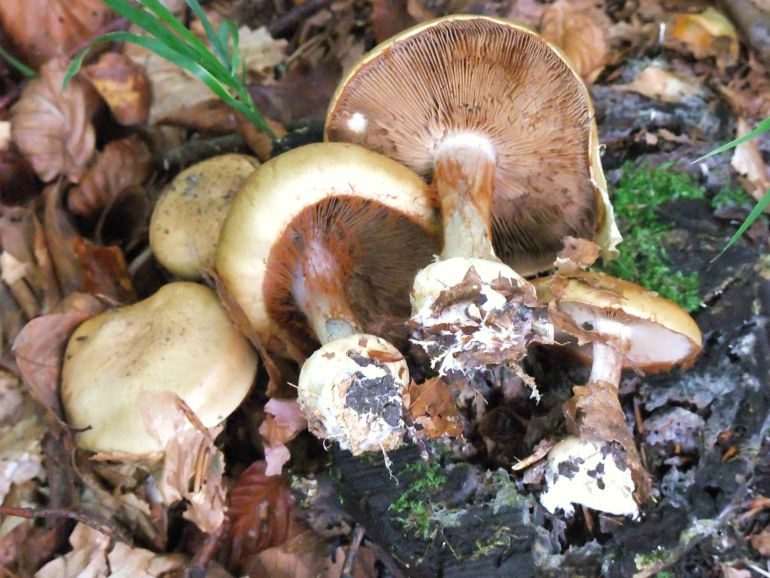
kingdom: Fungi
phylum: Basidiomycota
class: Agaricomycetes
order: Agaricales
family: Cortinariaceae
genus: Cortinarius
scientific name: Cortinarius anserinus
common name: bøge-slørhat
